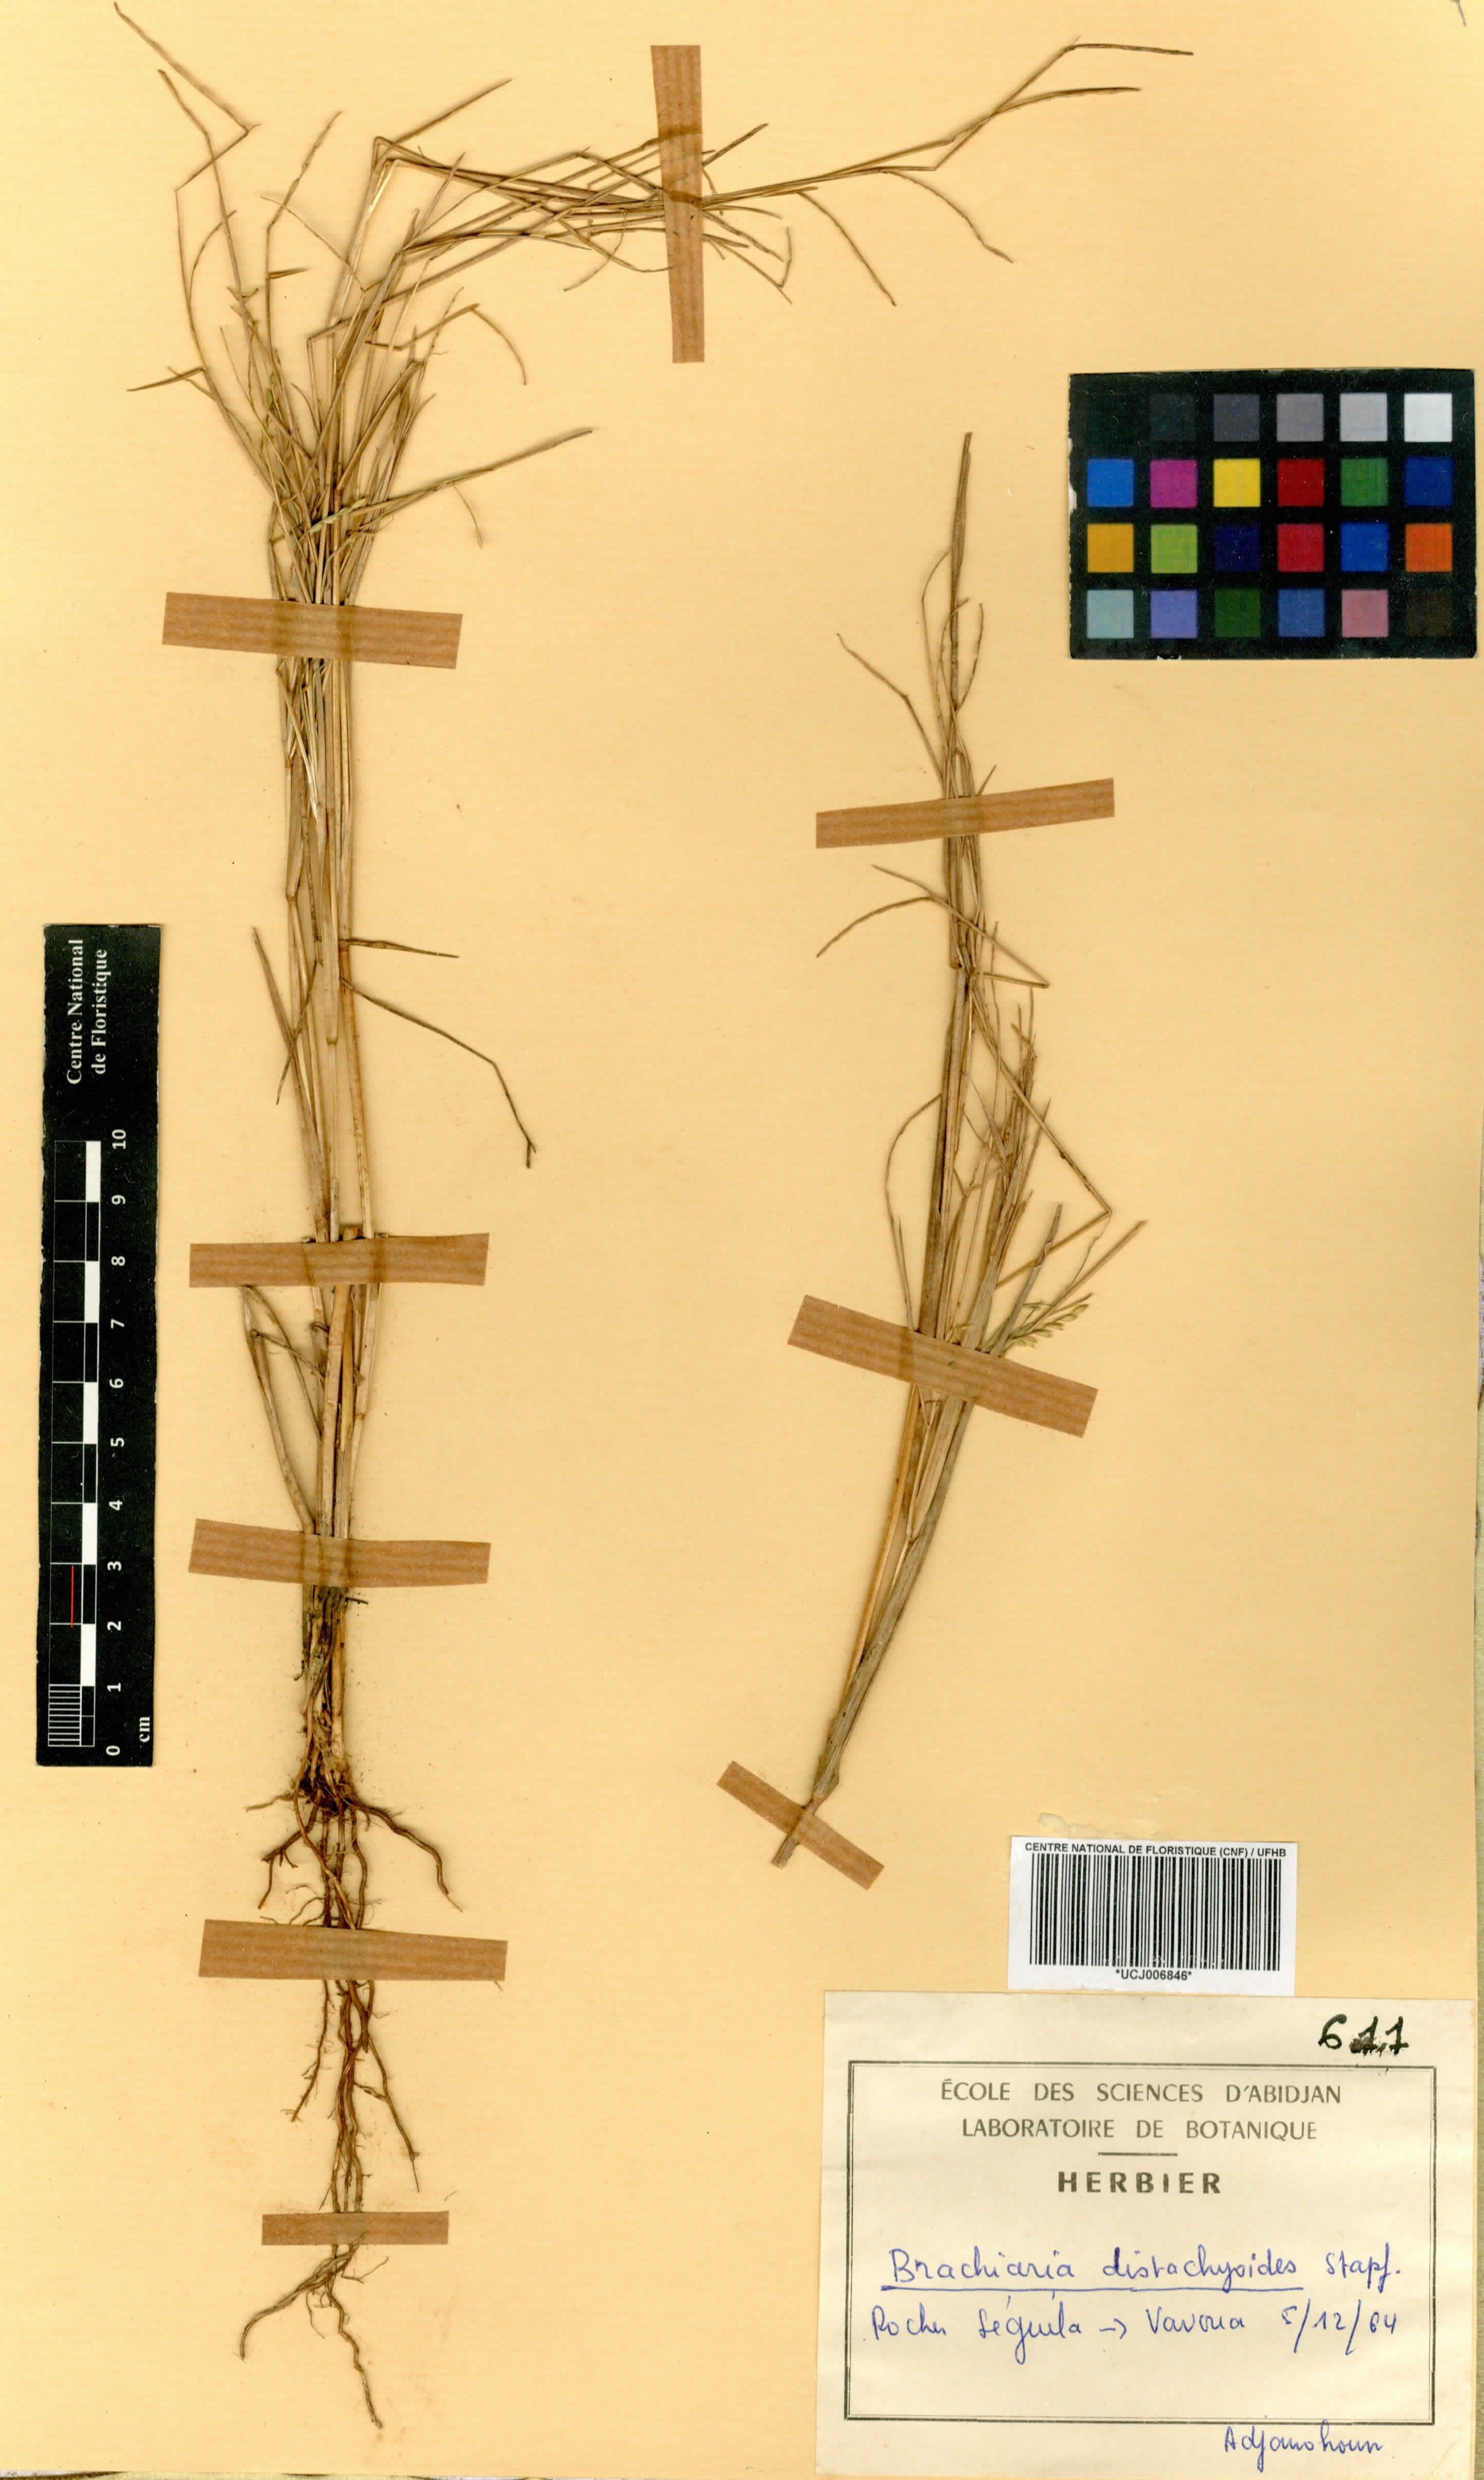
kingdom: Plantae
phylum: Tracheophyta
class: Liliopsida
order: Poales
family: Poaceae
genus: Urochloa
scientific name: Urochloa villosa
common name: Hairy signalgrass
